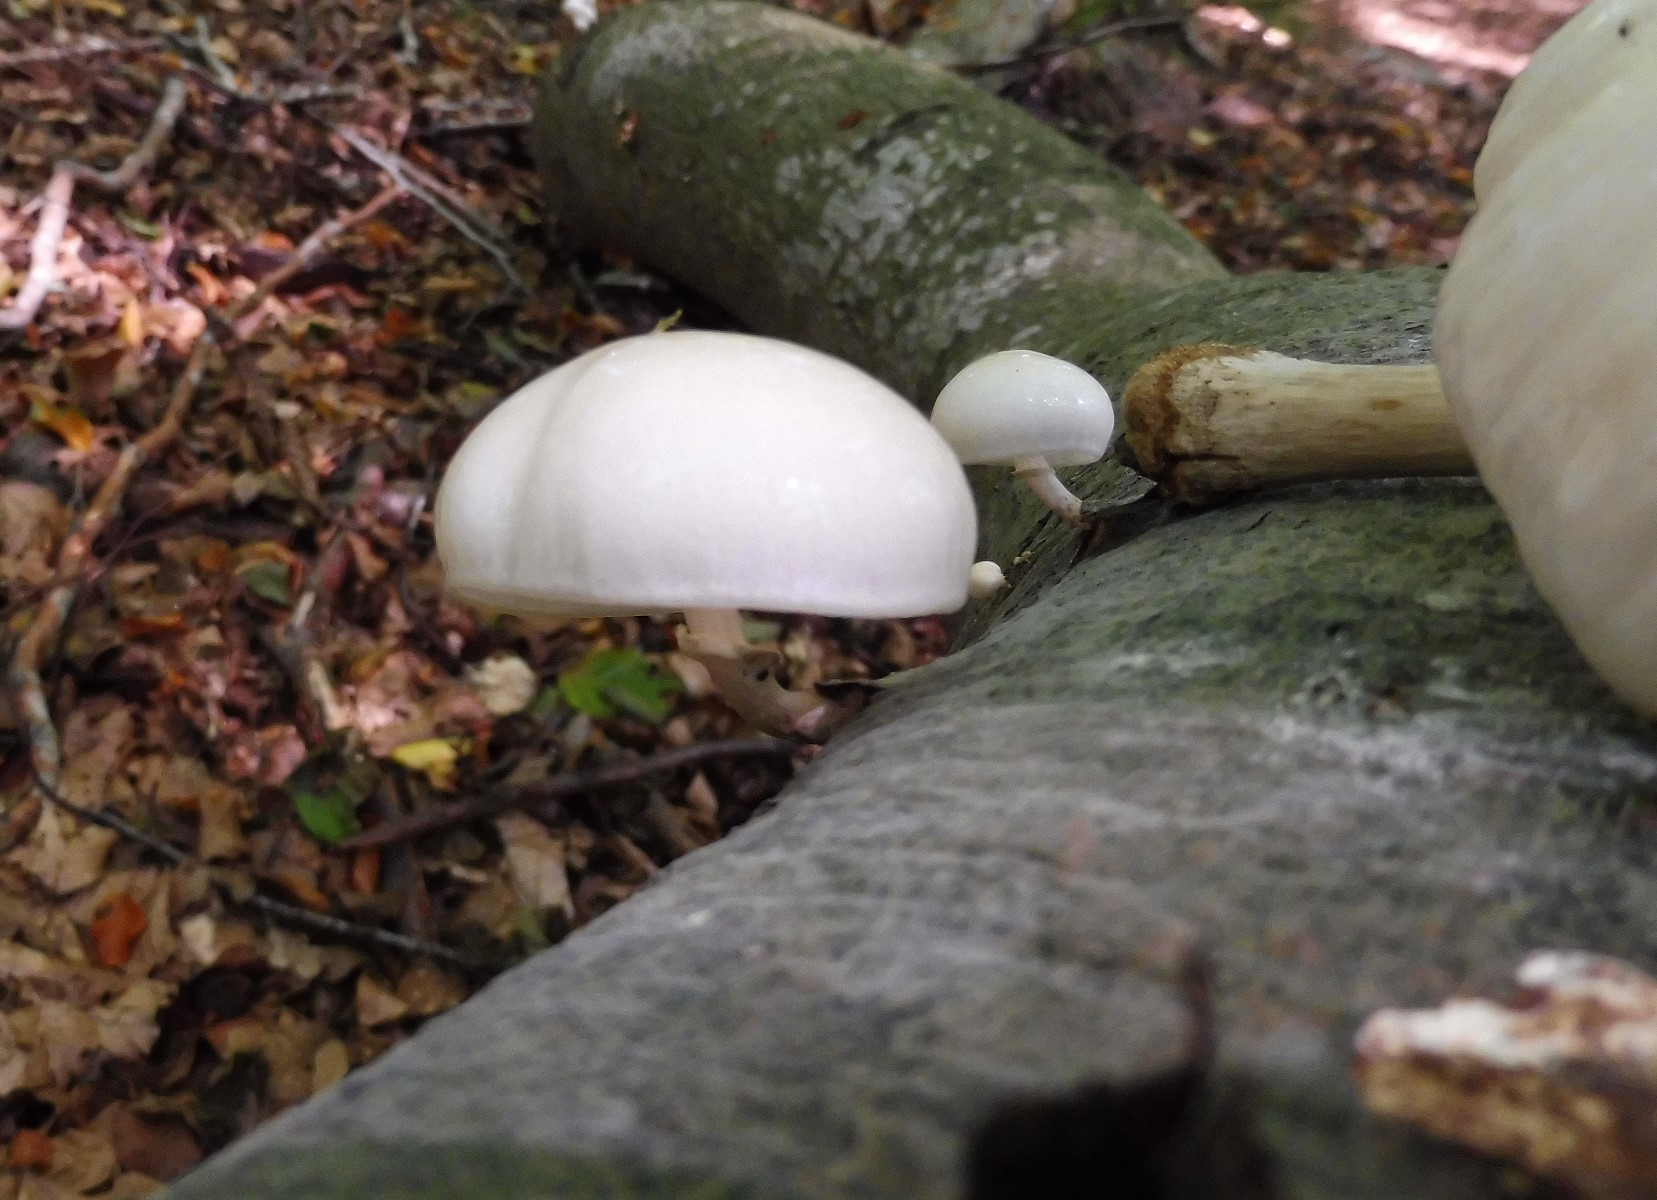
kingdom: Fungi
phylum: Basidiomycota
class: Agaricomycetes
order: Agaricales
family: Physalacriaceae
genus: Mucidula
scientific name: Mucidula mucida
